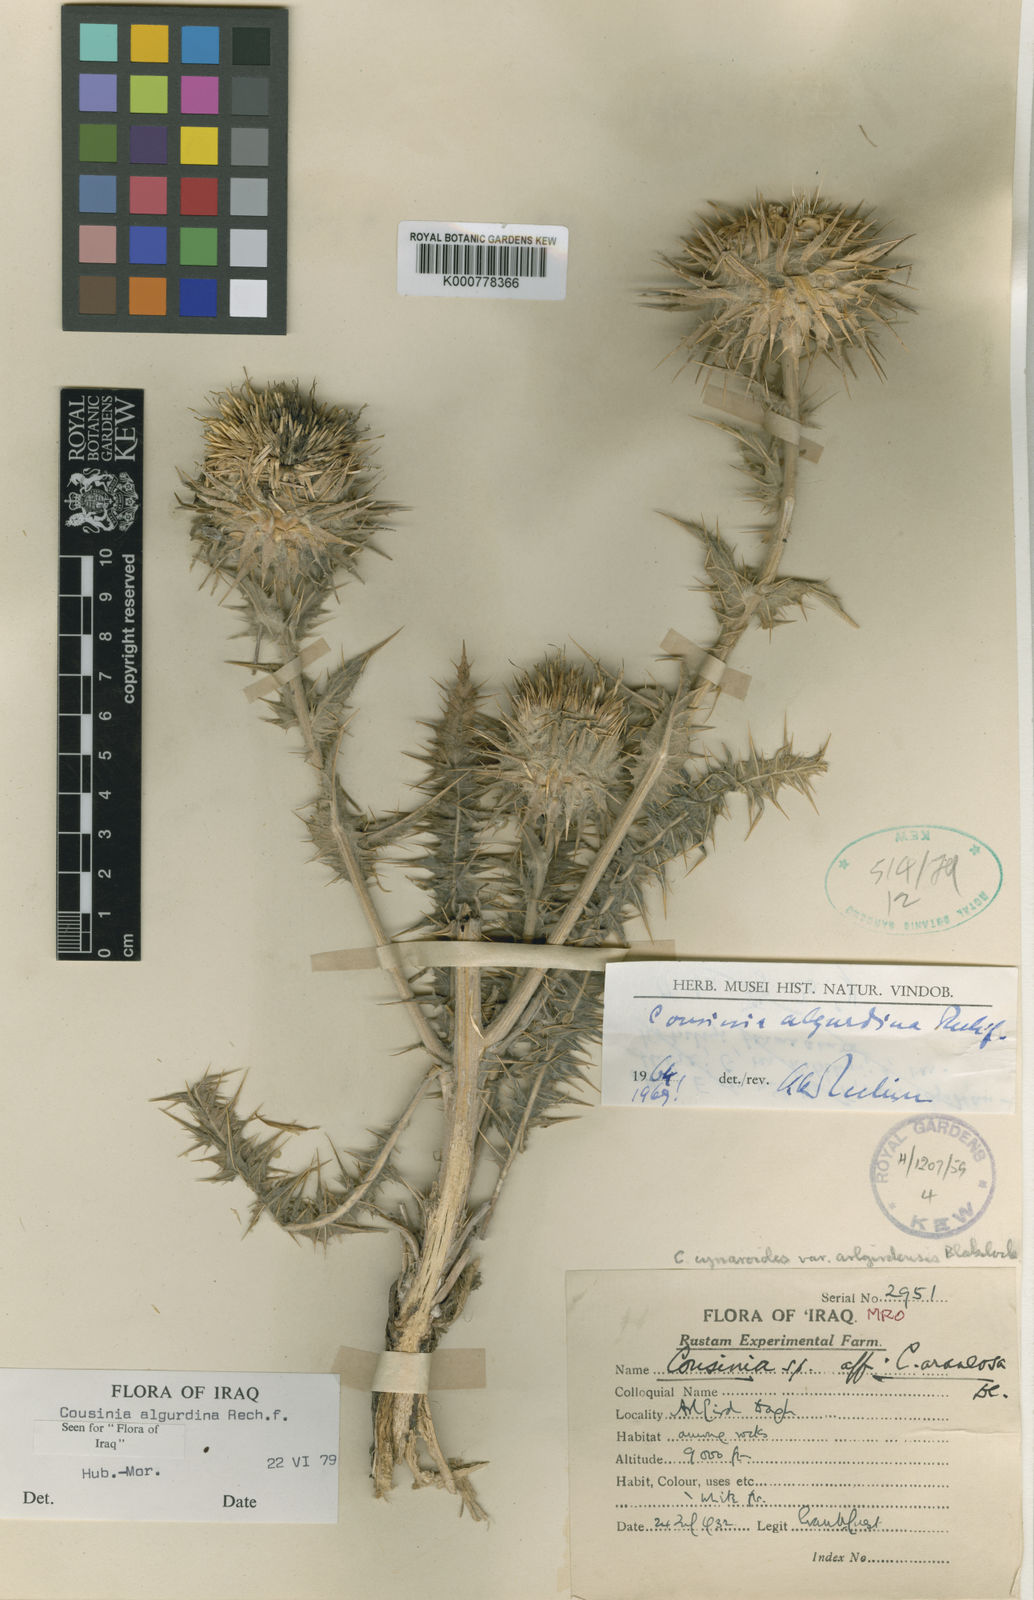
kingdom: Plantae
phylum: Tracheophyta
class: Magnoliopsida
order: Asterales
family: Asteraceae
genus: Cousinia
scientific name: Cousinia algurdina
